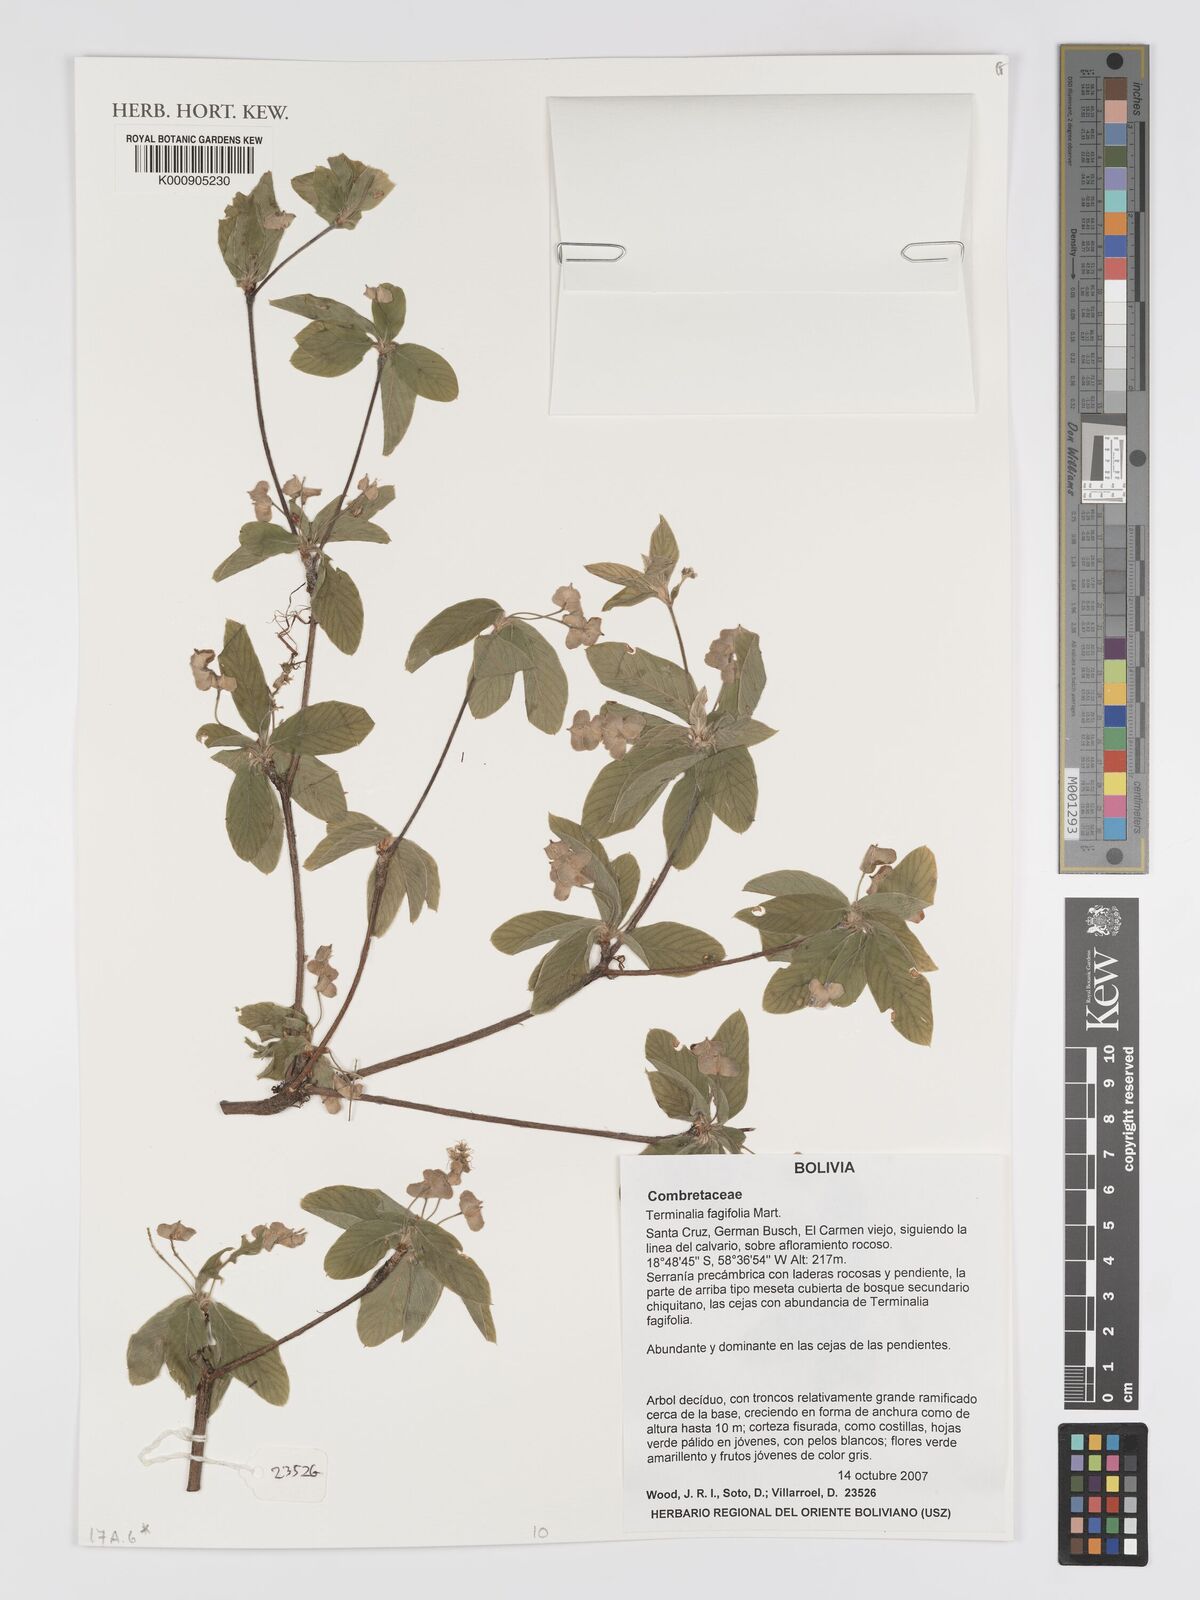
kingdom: Plantae
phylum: Tracheophyta
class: Magnoliopsida
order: Myrtales
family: Combretaceae
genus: Terminalia
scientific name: Terminalia fagifolia
